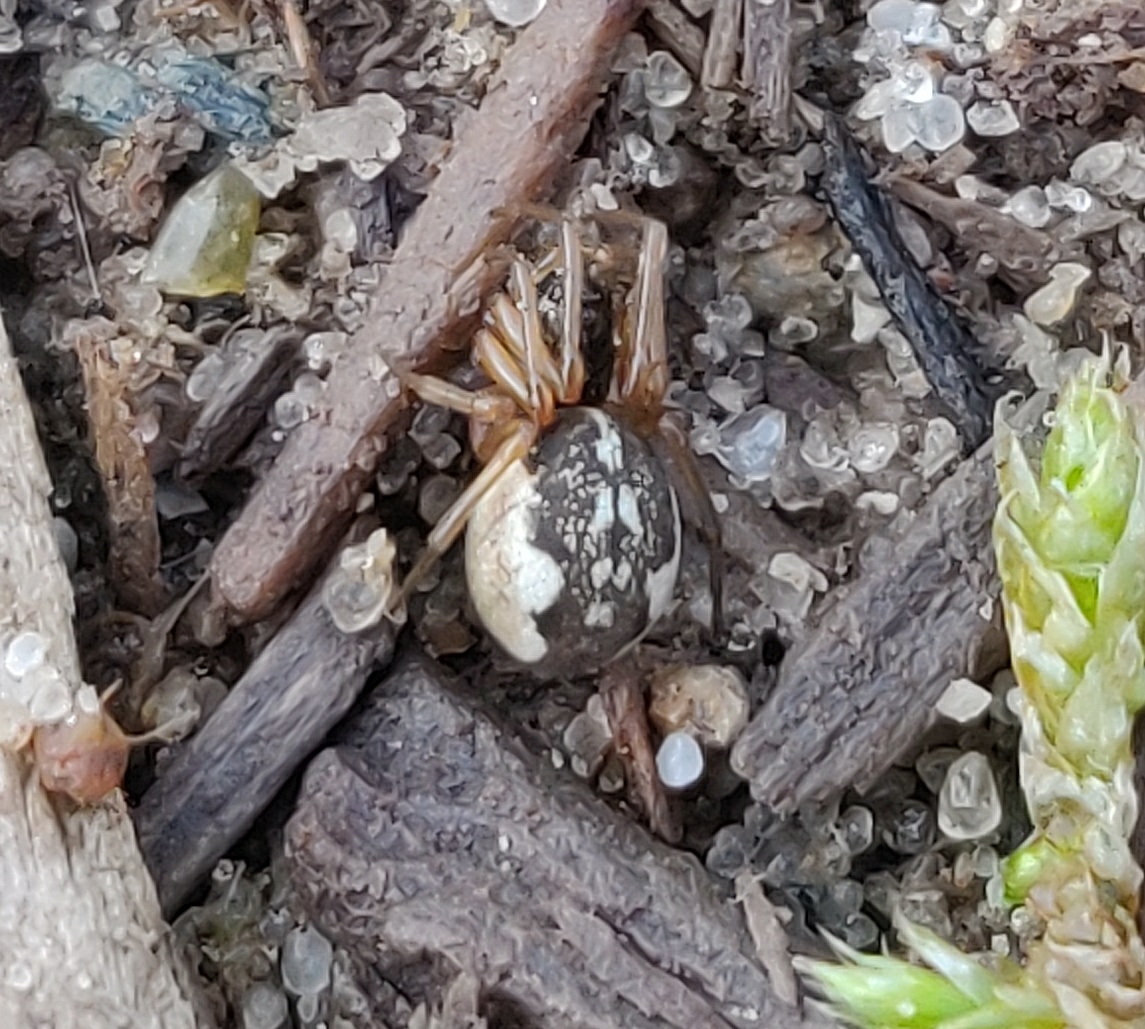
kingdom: Animalia
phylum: Arthropoda
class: Arachnida
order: Araneae
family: Tetragnathidae
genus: Pachygnatha
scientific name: Pachygnatha degeeri
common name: Marktykkæbe
